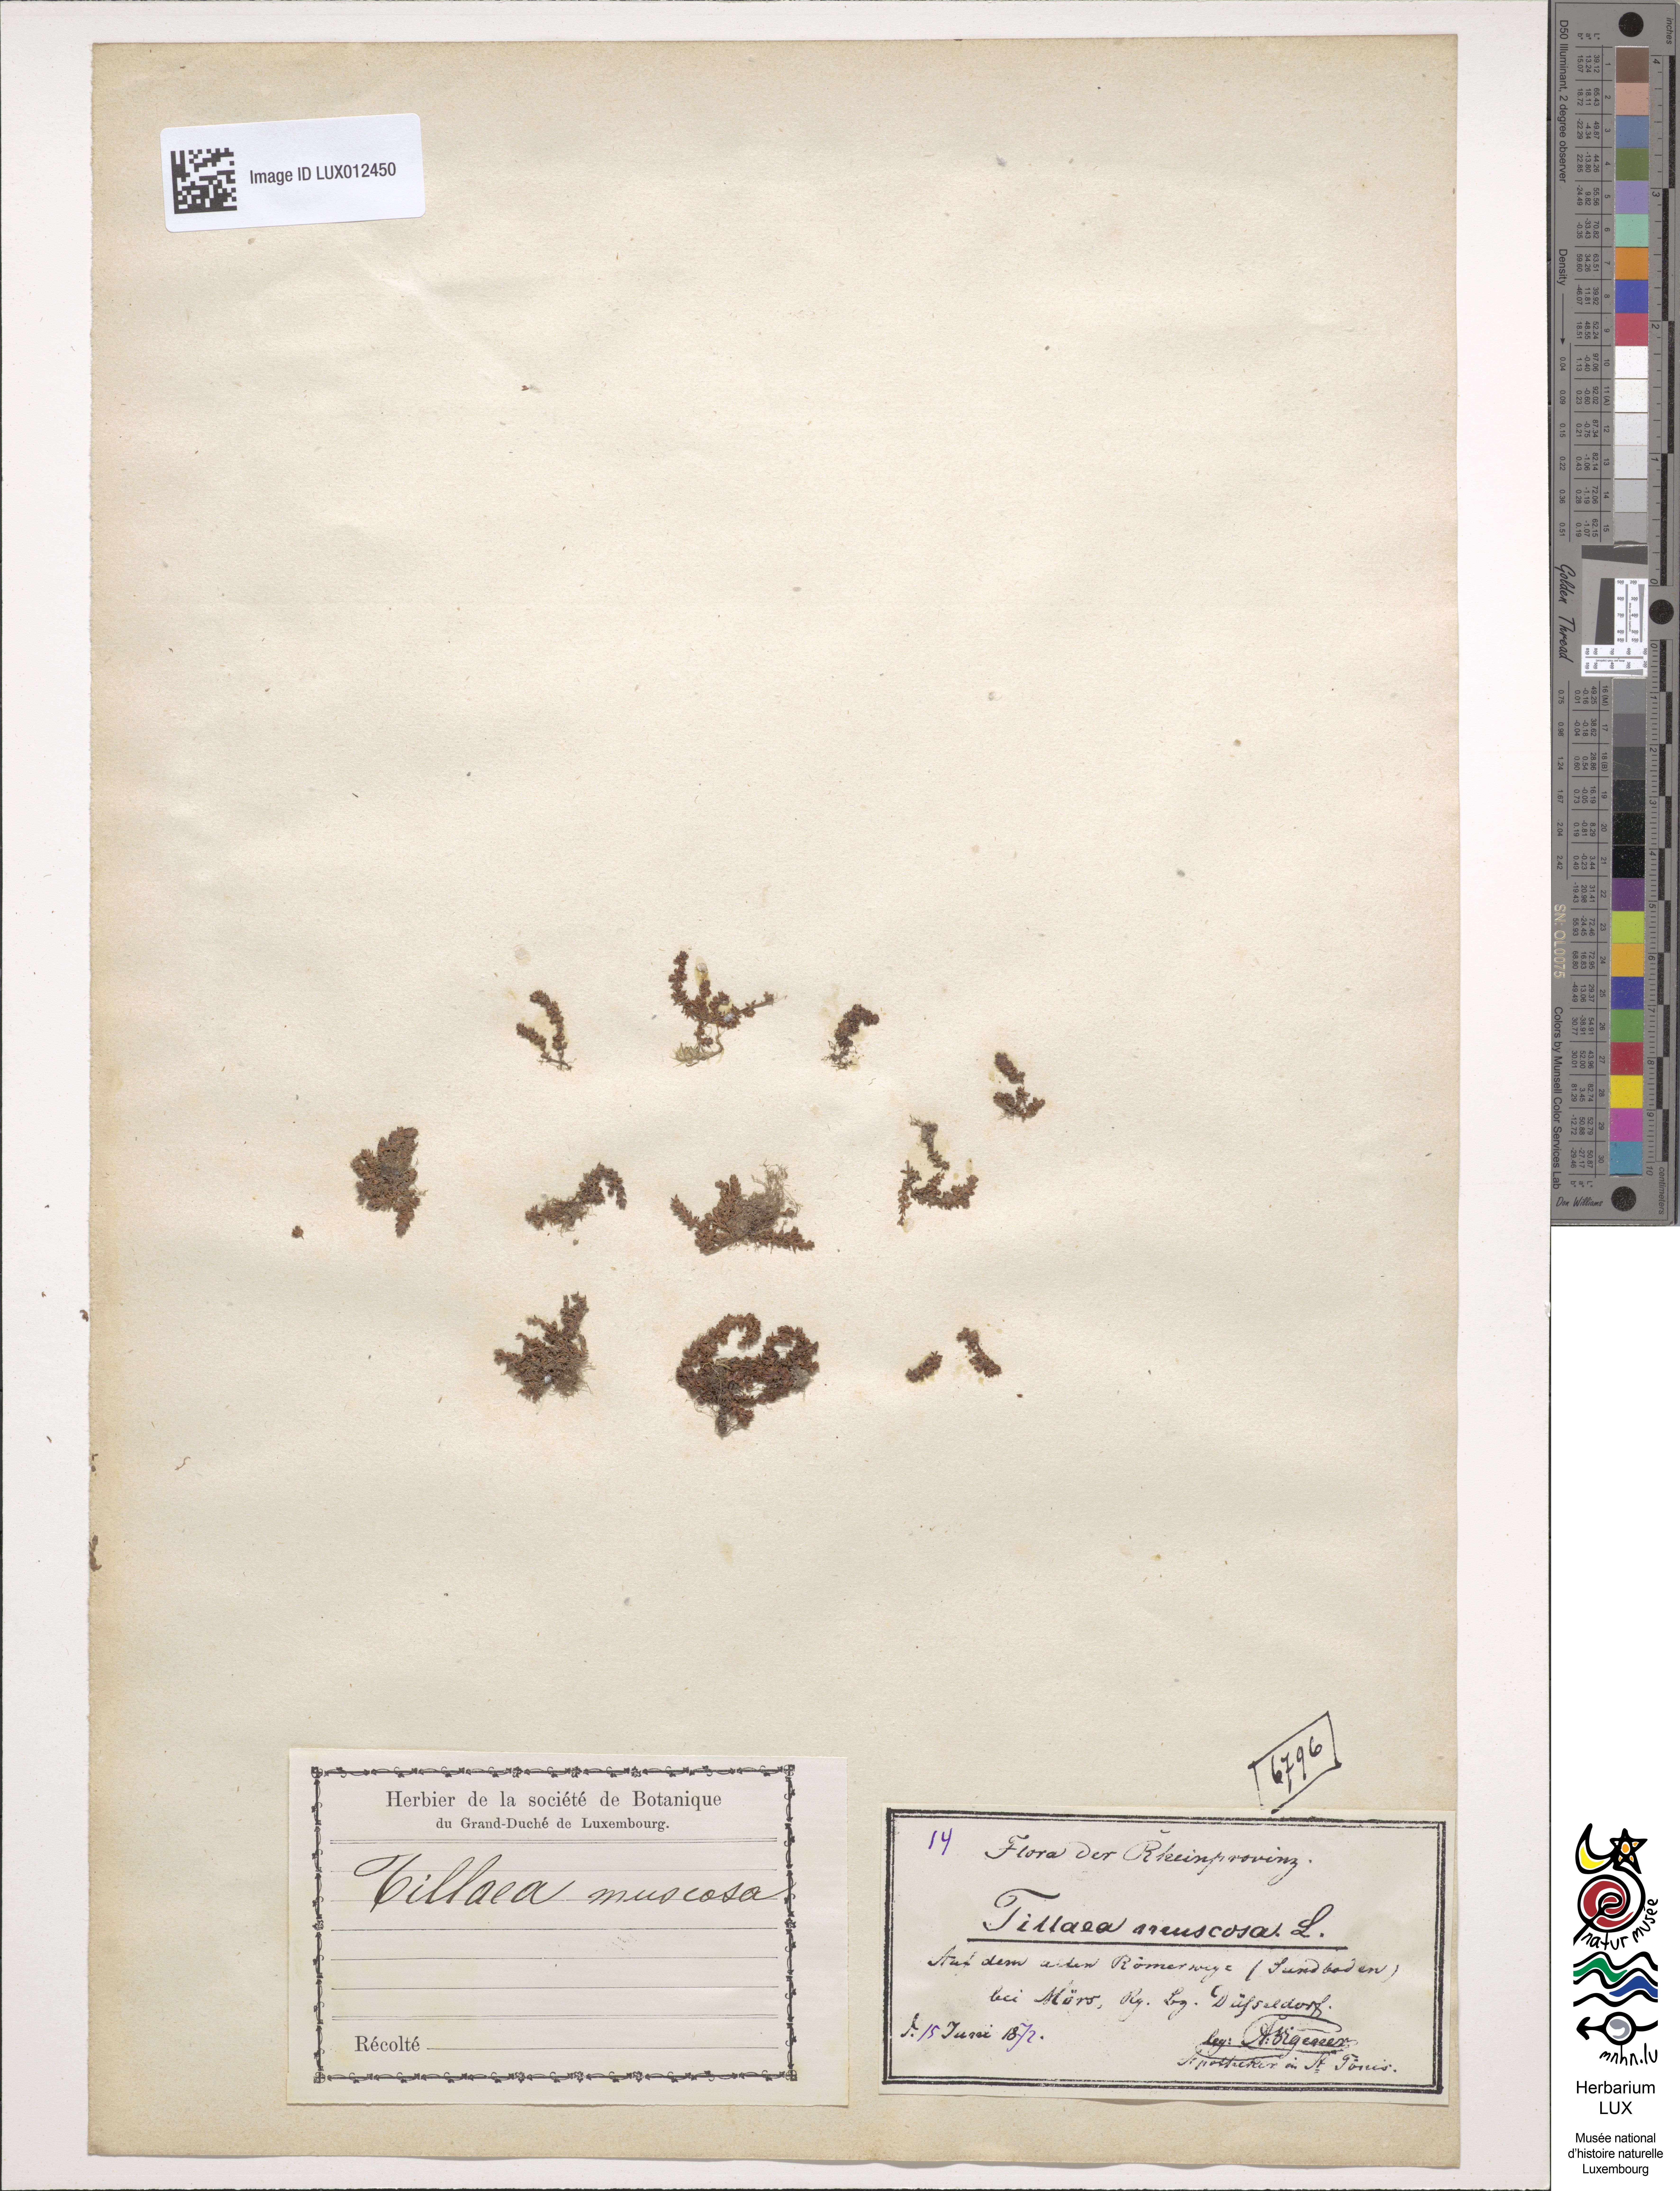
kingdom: Plantae
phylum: Tracheophyta
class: Magnoliopsida
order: Saxifragales
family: Crassulaceae
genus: Crassula
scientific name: Crassula tillaea
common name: Mossy stonecrop
